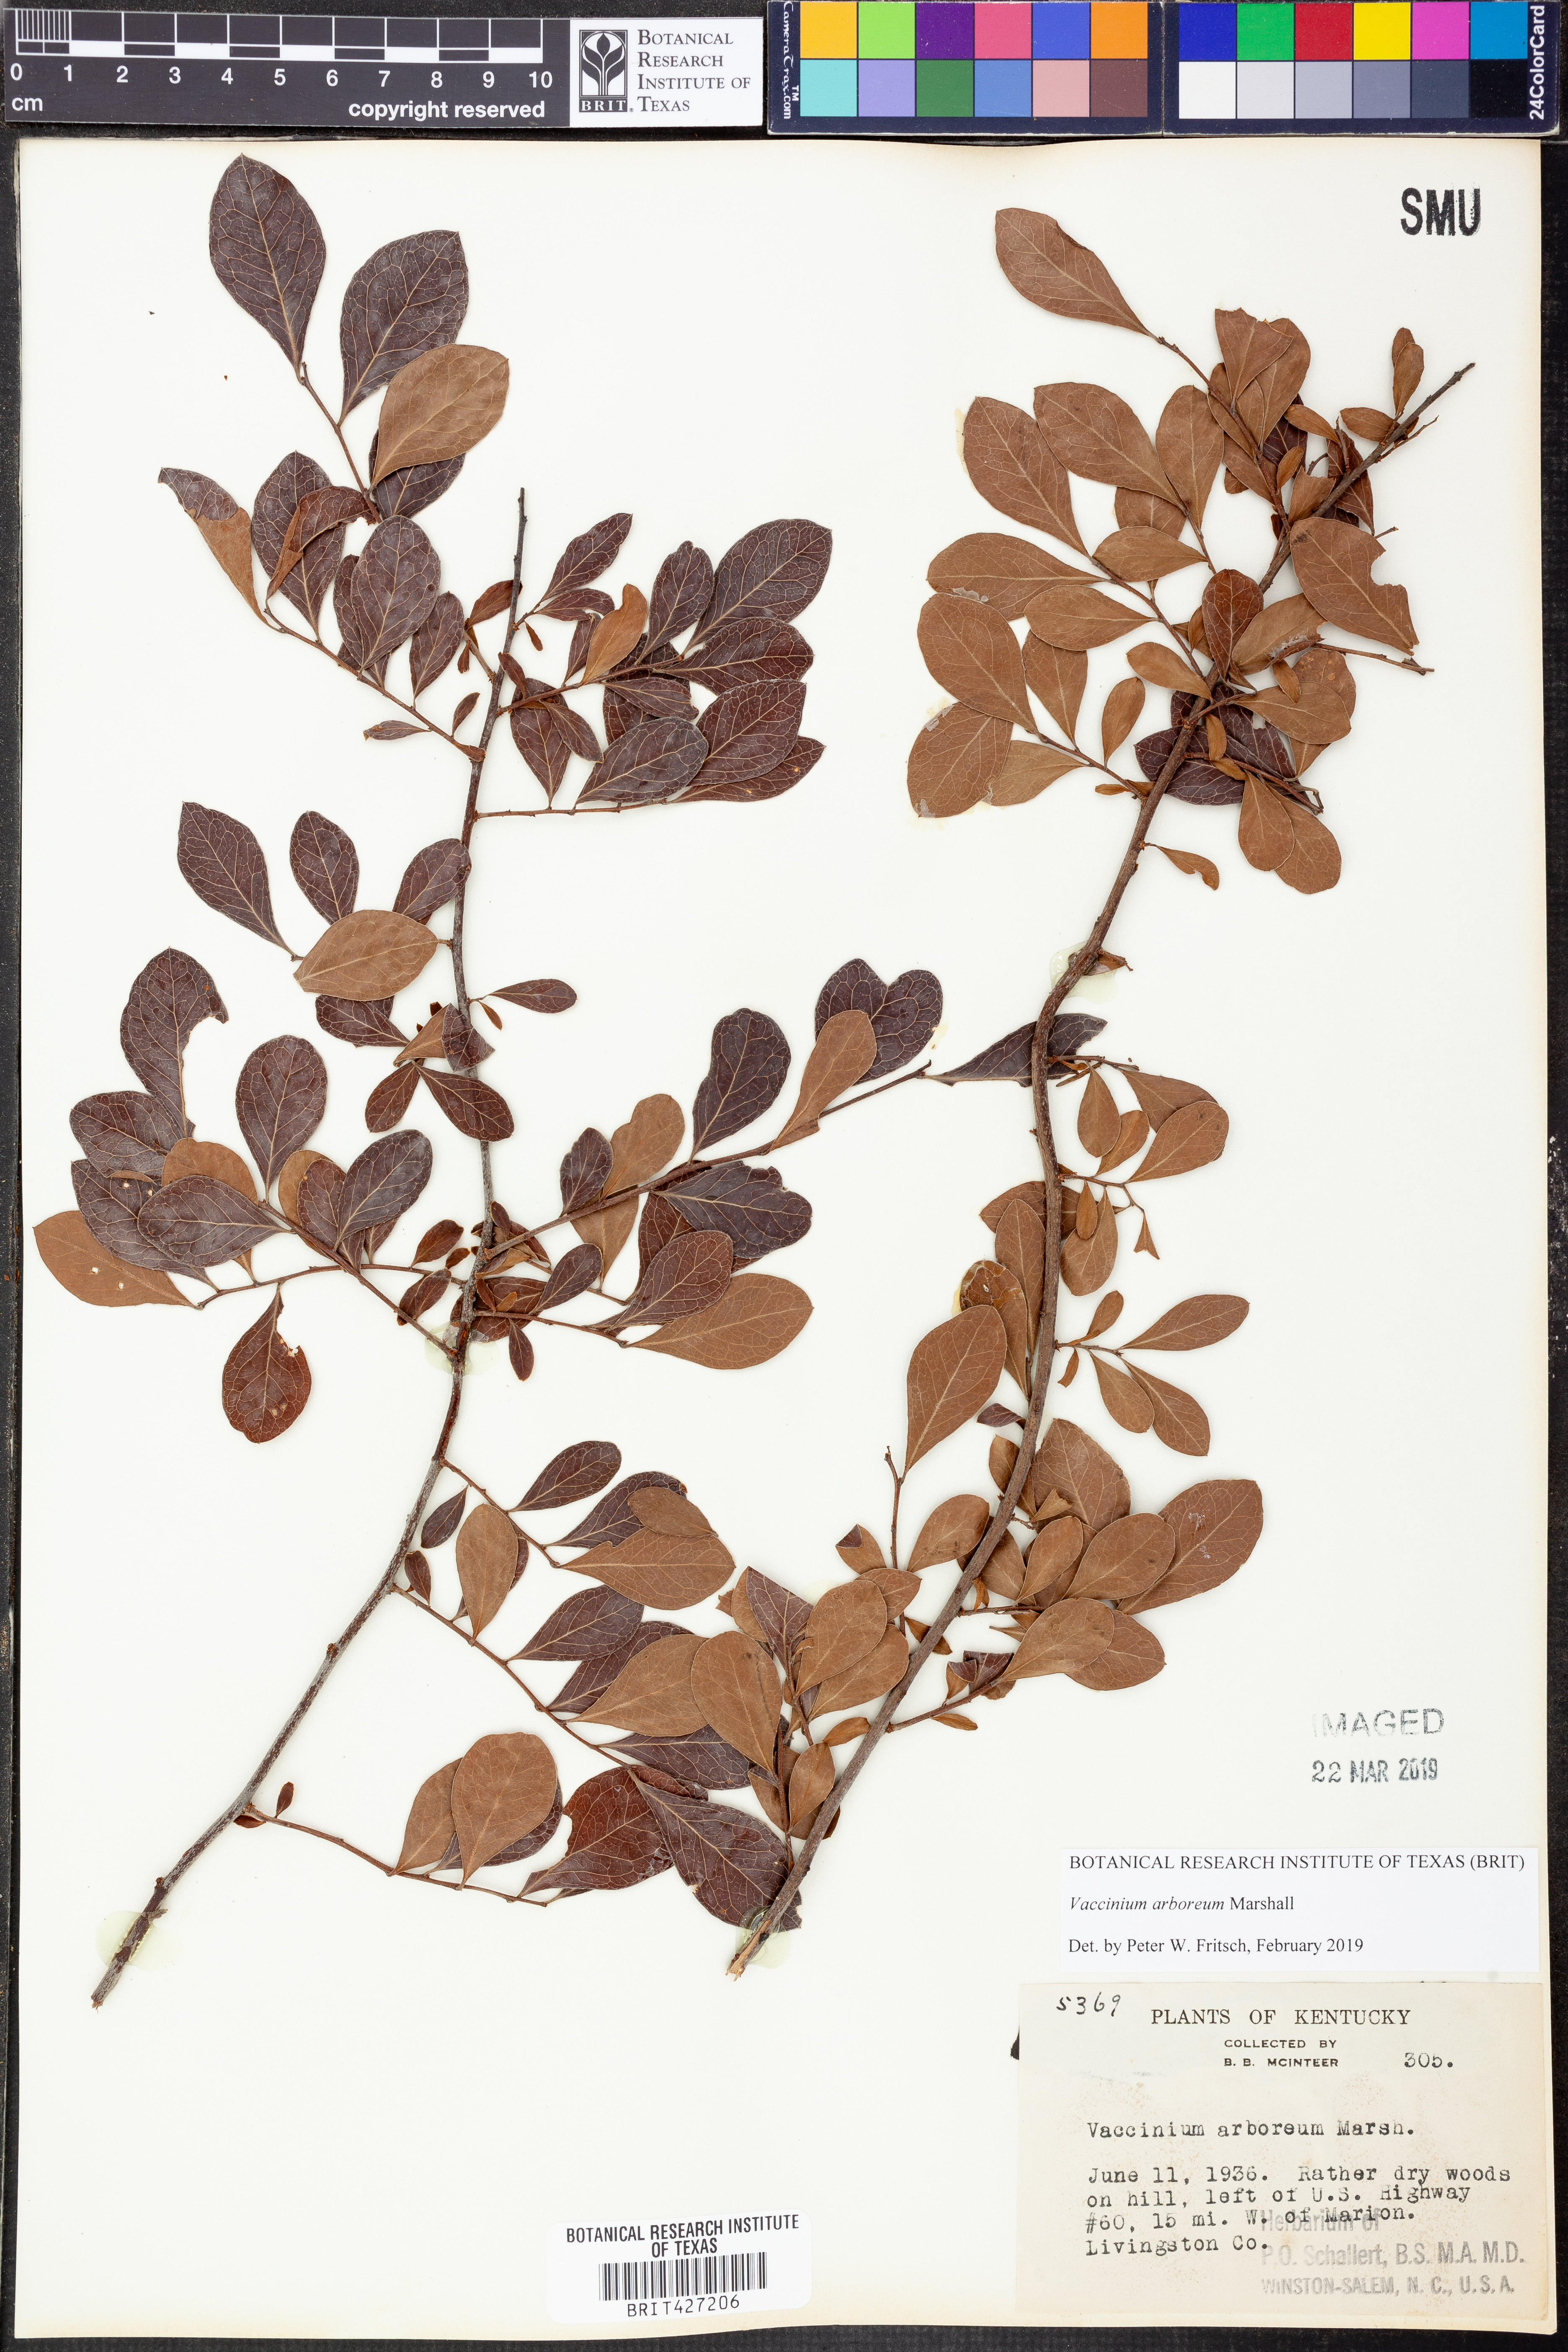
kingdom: Plantae
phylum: Tracheophyta
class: Magnoliopsida
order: Ericales
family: Ericaceae
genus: Vaccinium
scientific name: Vaccinium arboreum
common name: Farkleberry
